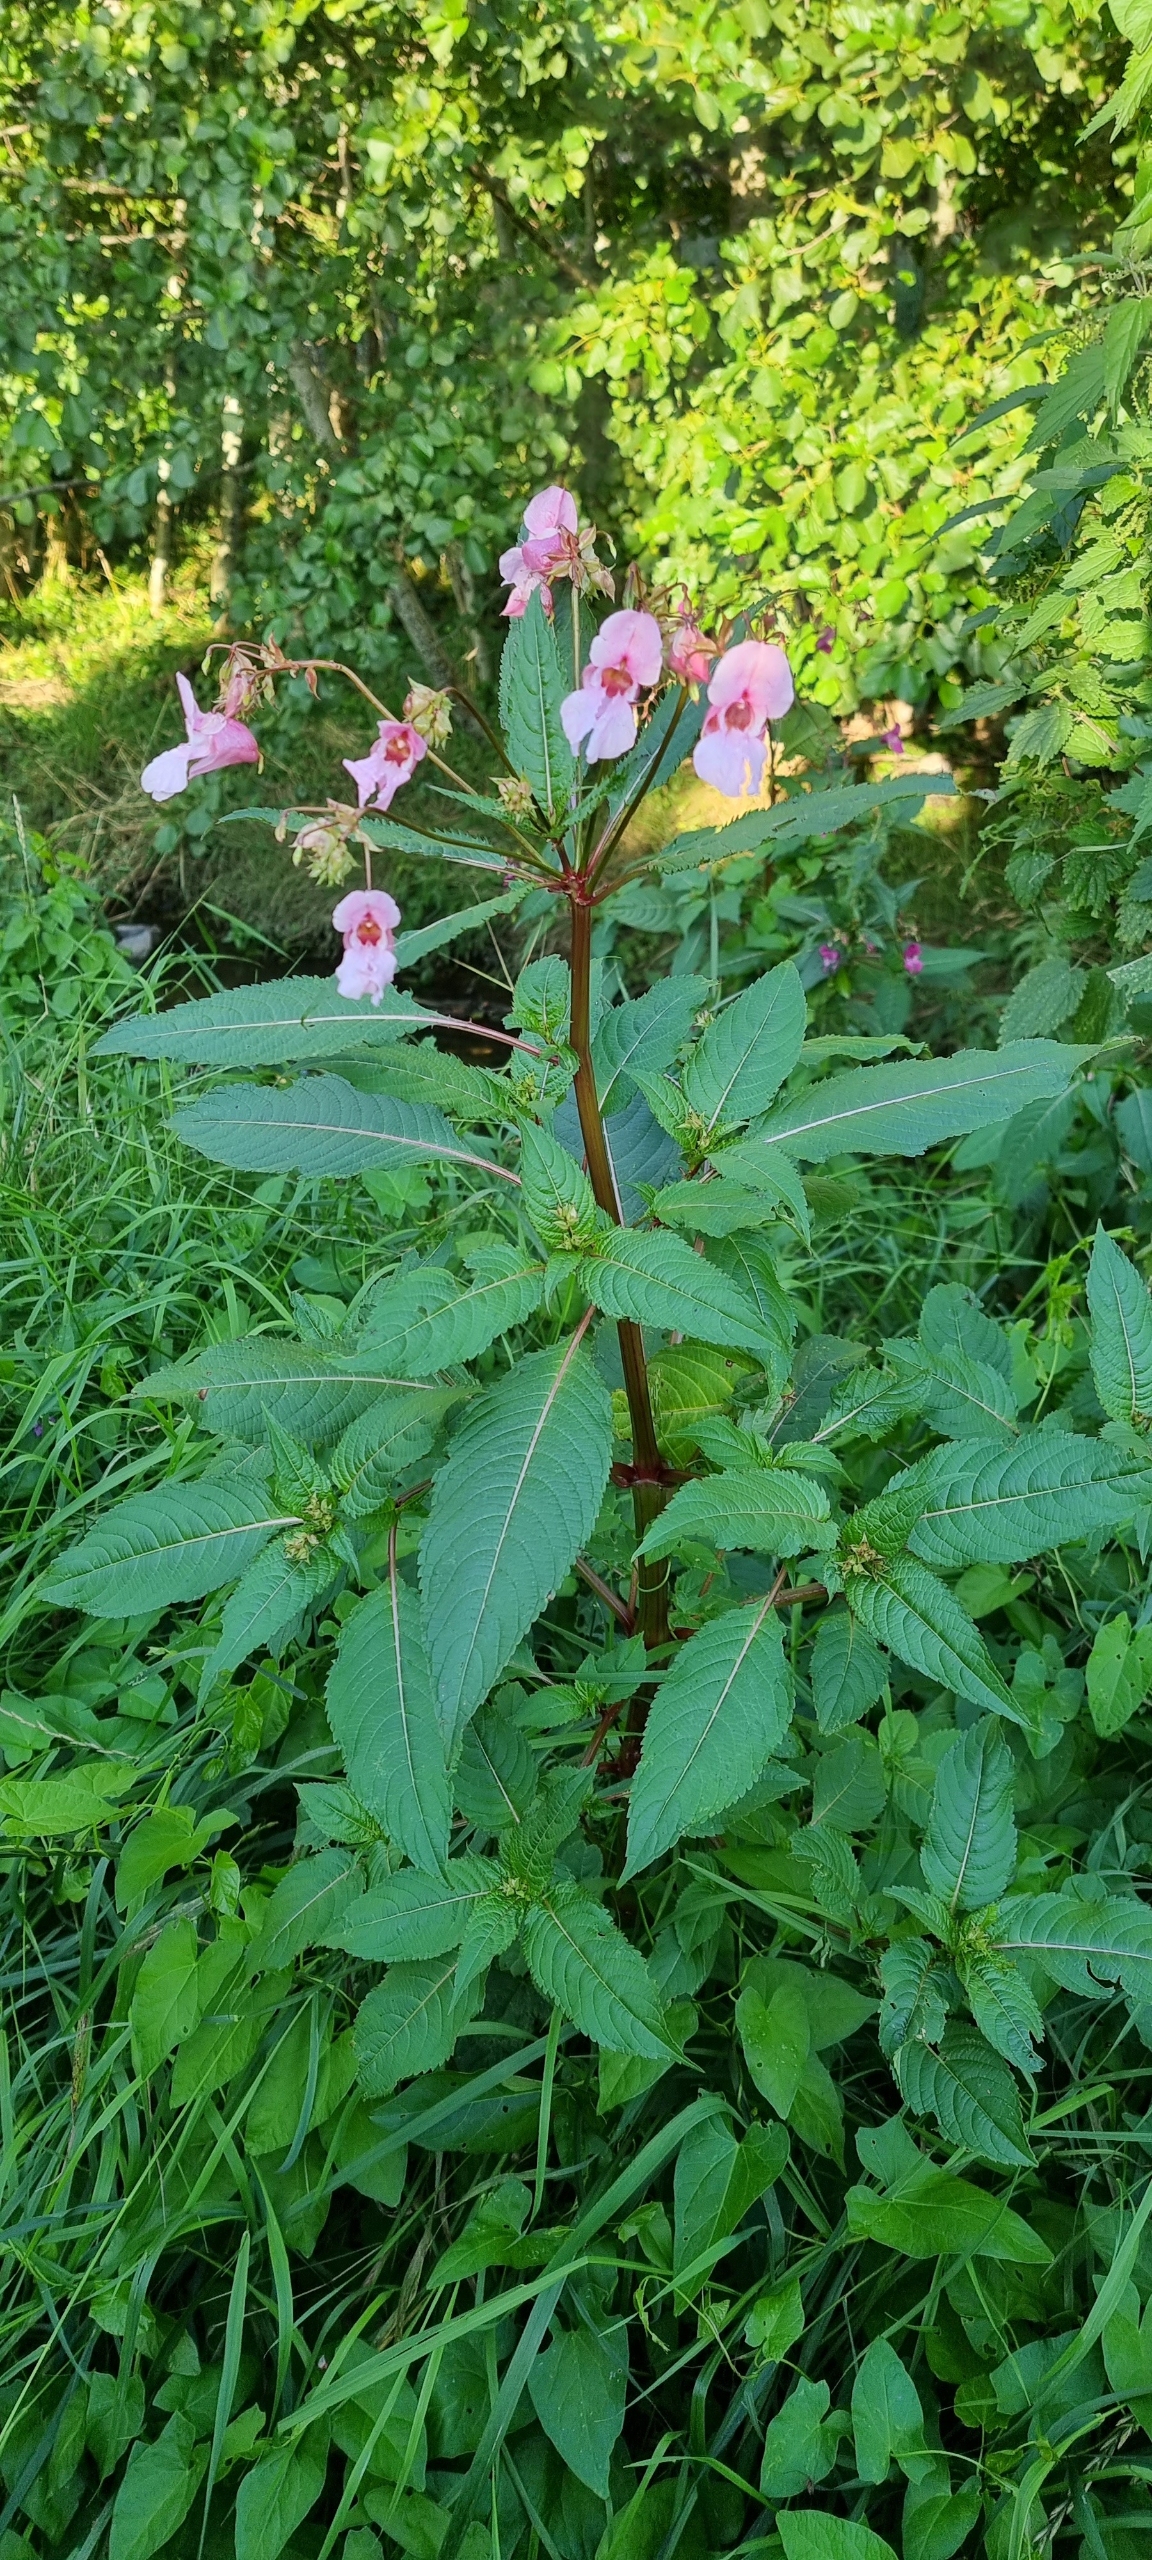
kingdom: Plantae
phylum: Tracheophyta
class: Magnoliopsida
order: Ericales
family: Balsaminaceae
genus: Impatiens
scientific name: Impatiens glandulifera
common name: Kæmpe-balsamin
